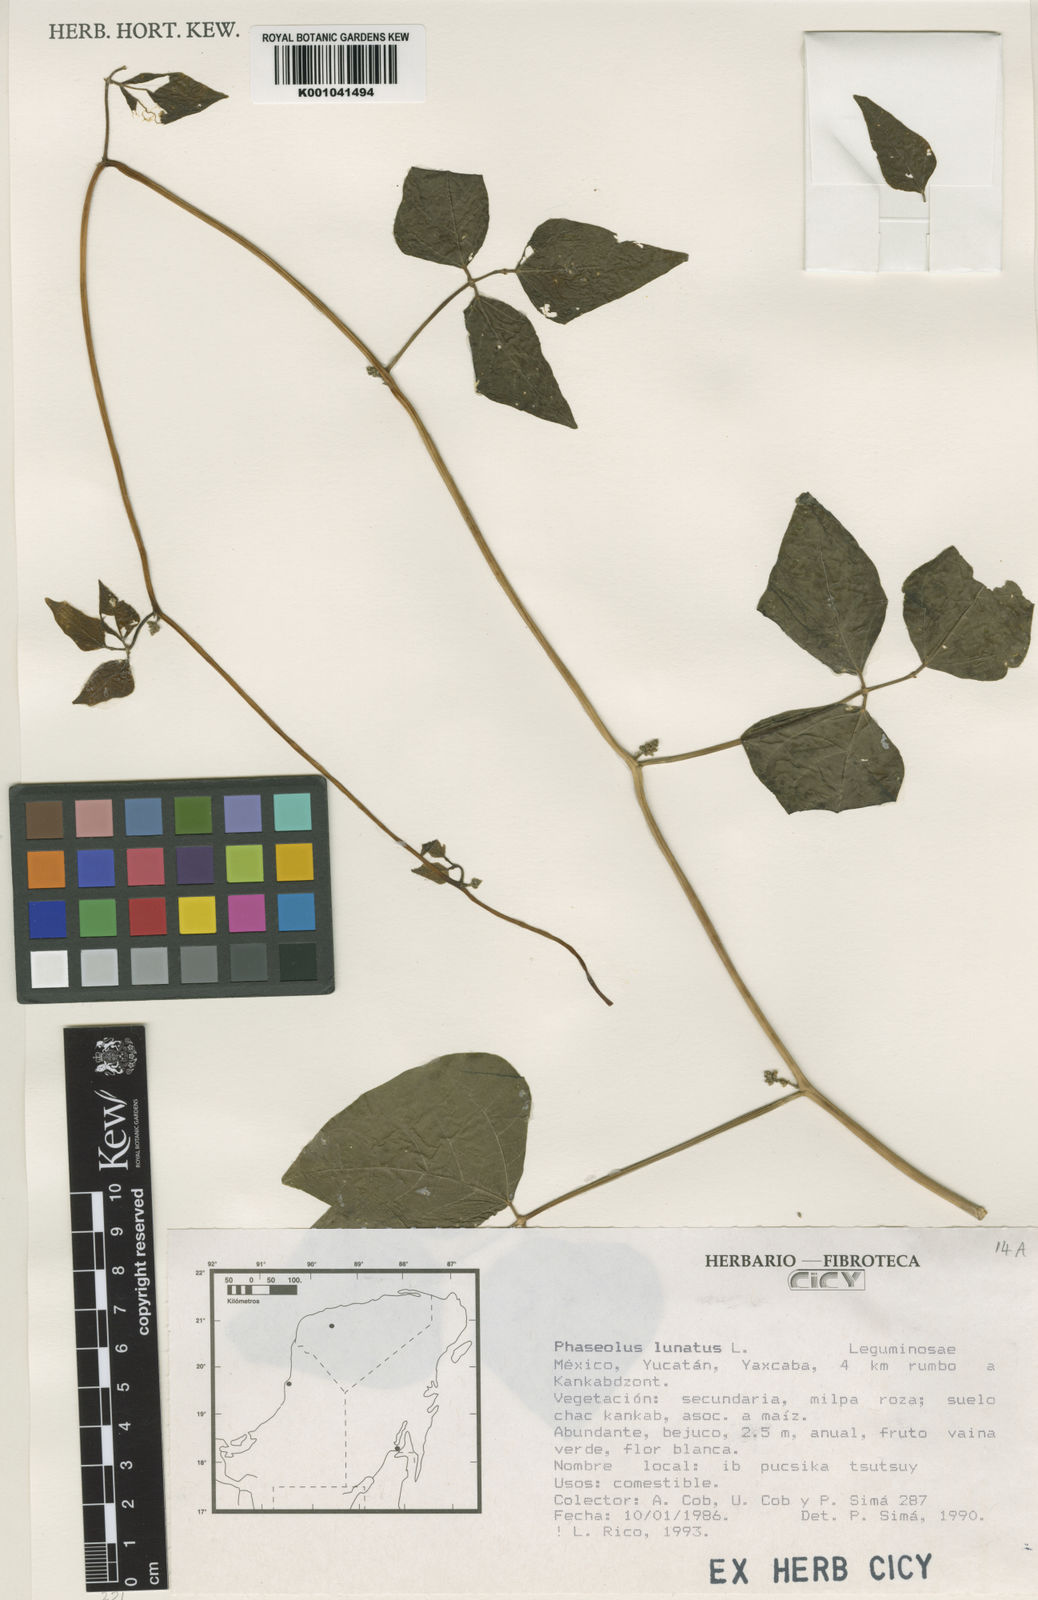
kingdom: Plantae
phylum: Tracheophyta
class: Magnoliopsida
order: Fabales
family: Fabaceae
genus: Phaseolus
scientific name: Phaseolus lunatus
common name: Sieva bean
